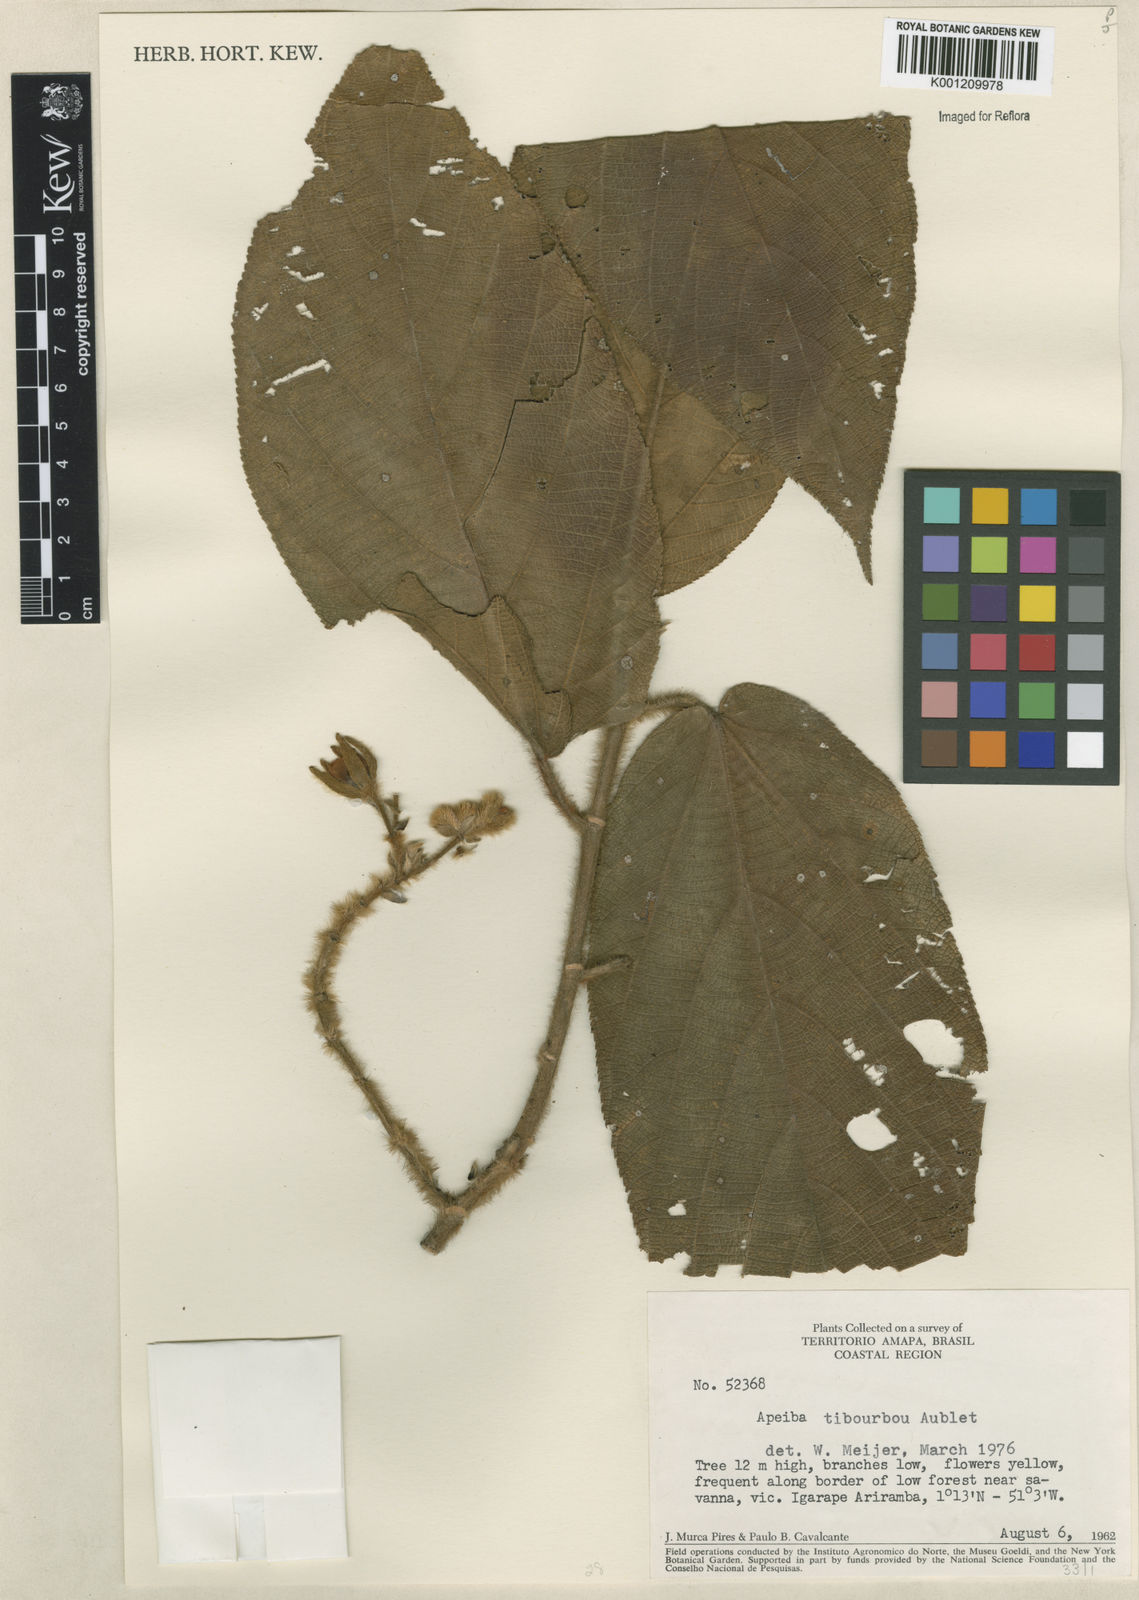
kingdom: Plantae
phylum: Tracheophyta
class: Magnoliopsida
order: Malvales
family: Malvaceae
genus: Apeiba
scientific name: Apeiba tibourbou
